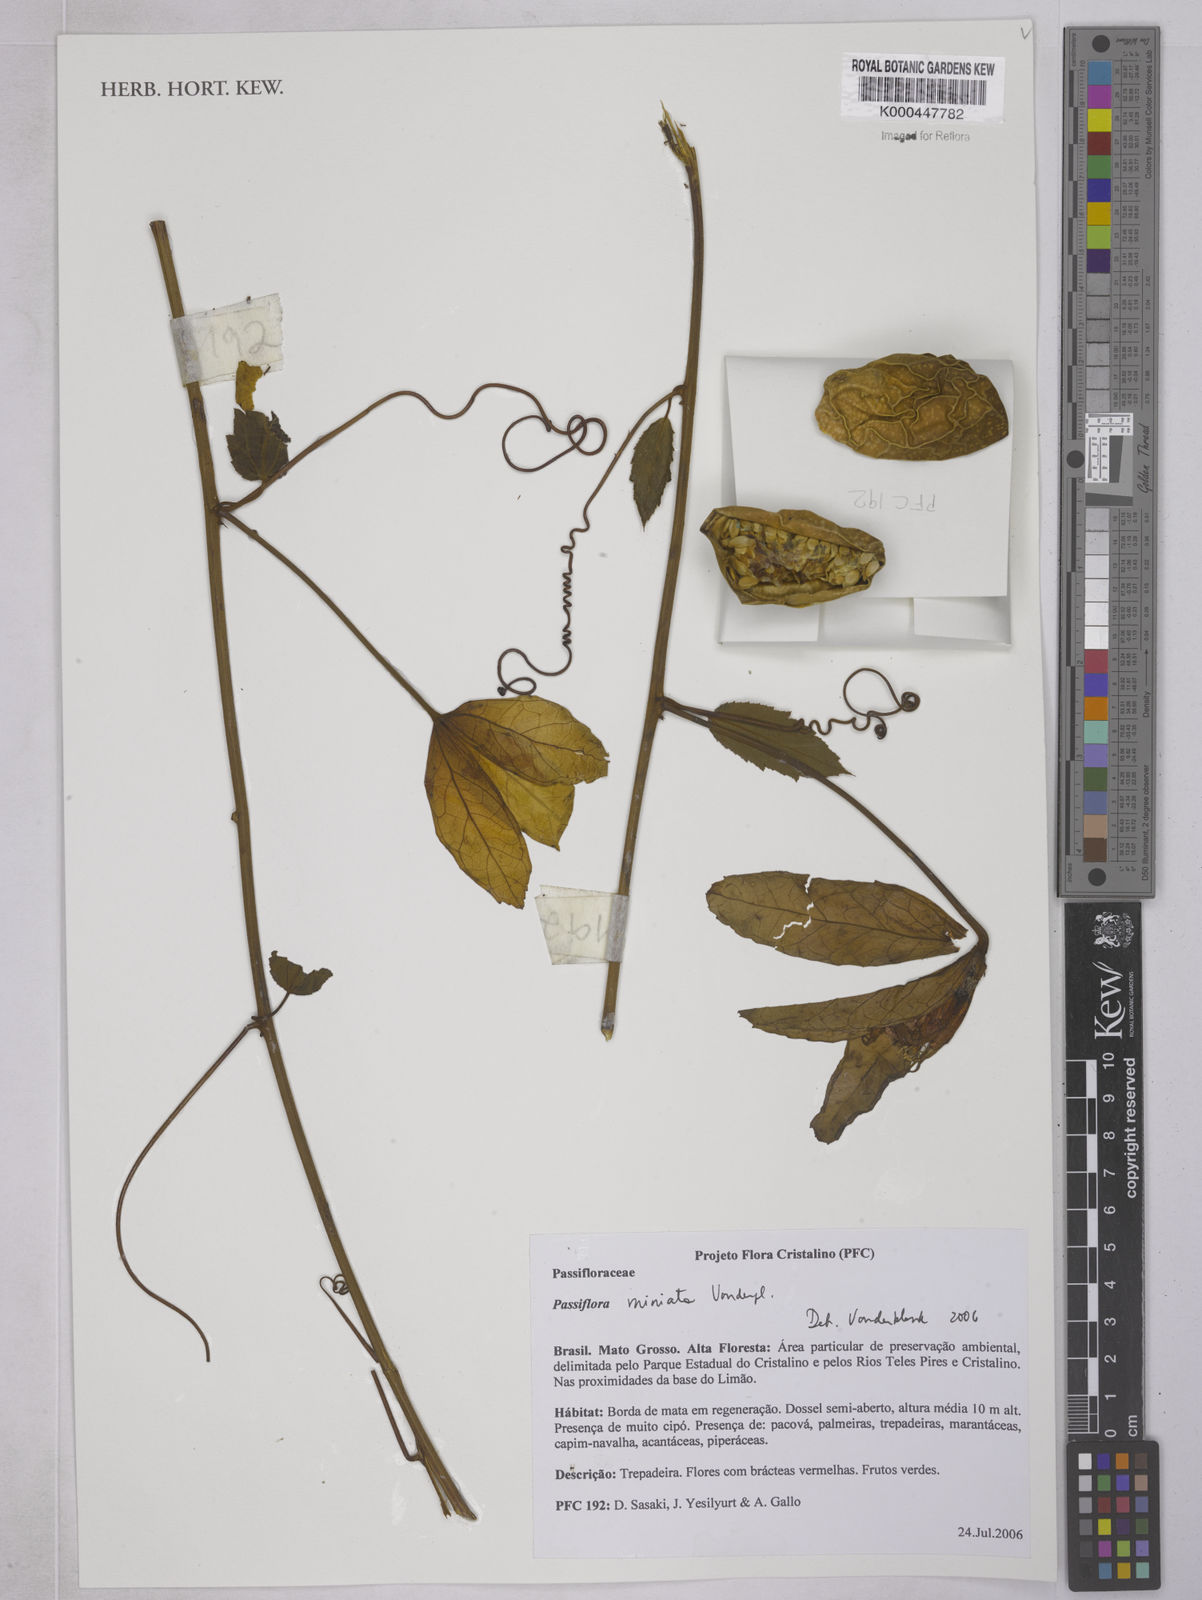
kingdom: Plantae
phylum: Tracheophyta
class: Magnoliopsida
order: Malpighiales
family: Passifloraceae
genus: Passiflora
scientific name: Passiflora miniata
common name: Red granadilla
